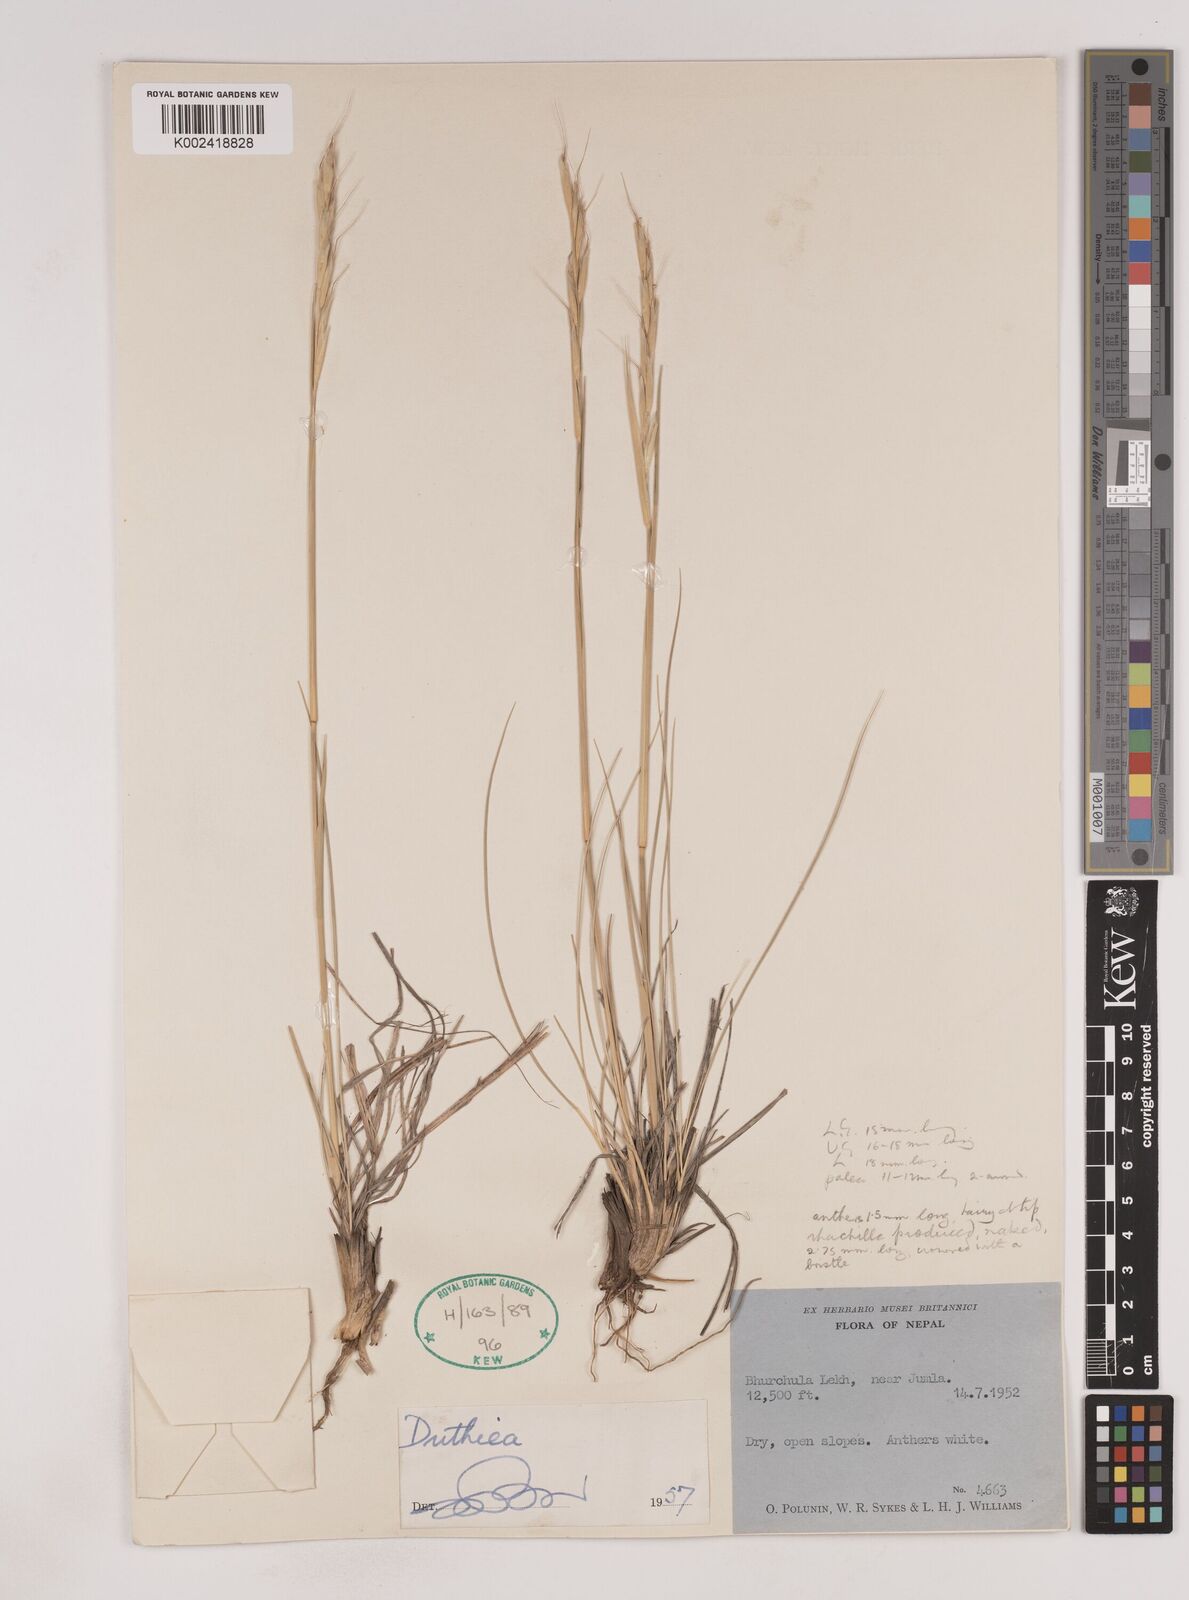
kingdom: Plantae
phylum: Tracheophyta
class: Liliopsida
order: Poales
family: Poaceae
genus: Duthiea
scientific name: Duthiea brachypodium
